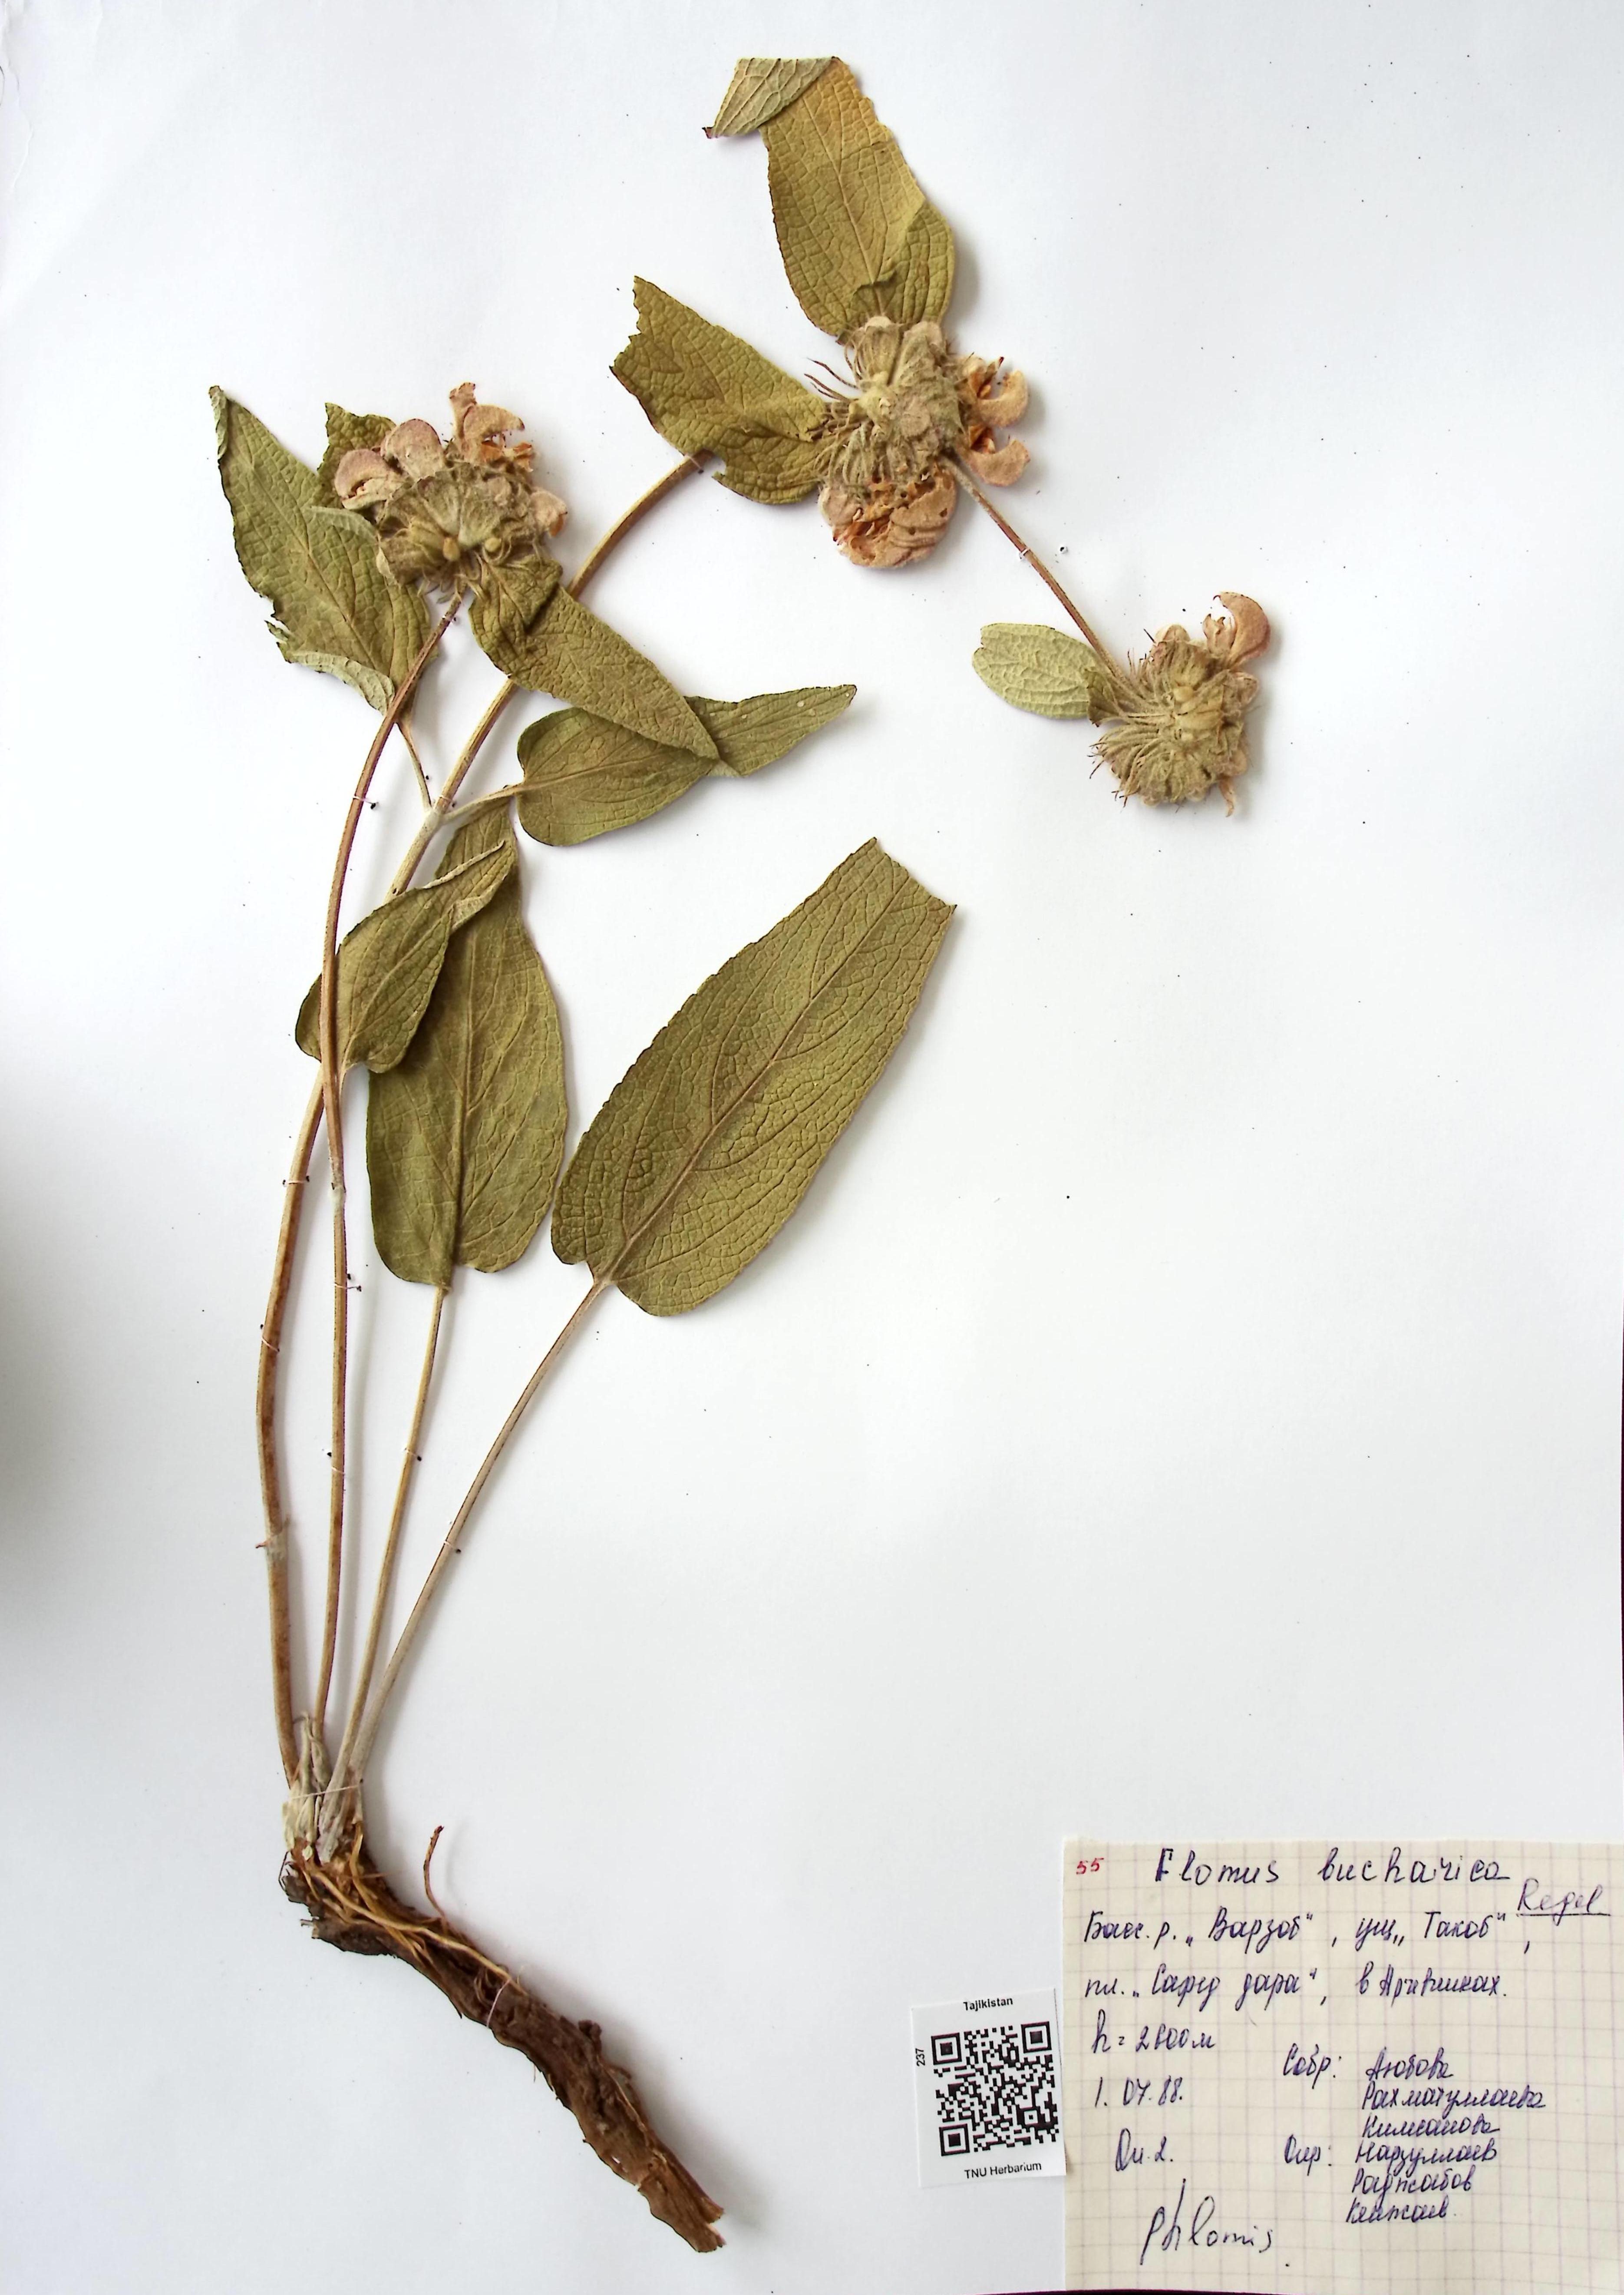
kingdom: Plantae
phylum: Tracheophyta
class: Magnoliopsida
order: Lamiales
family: Lamiaceae
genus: Phlomis
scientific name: Phlomis bucharica
